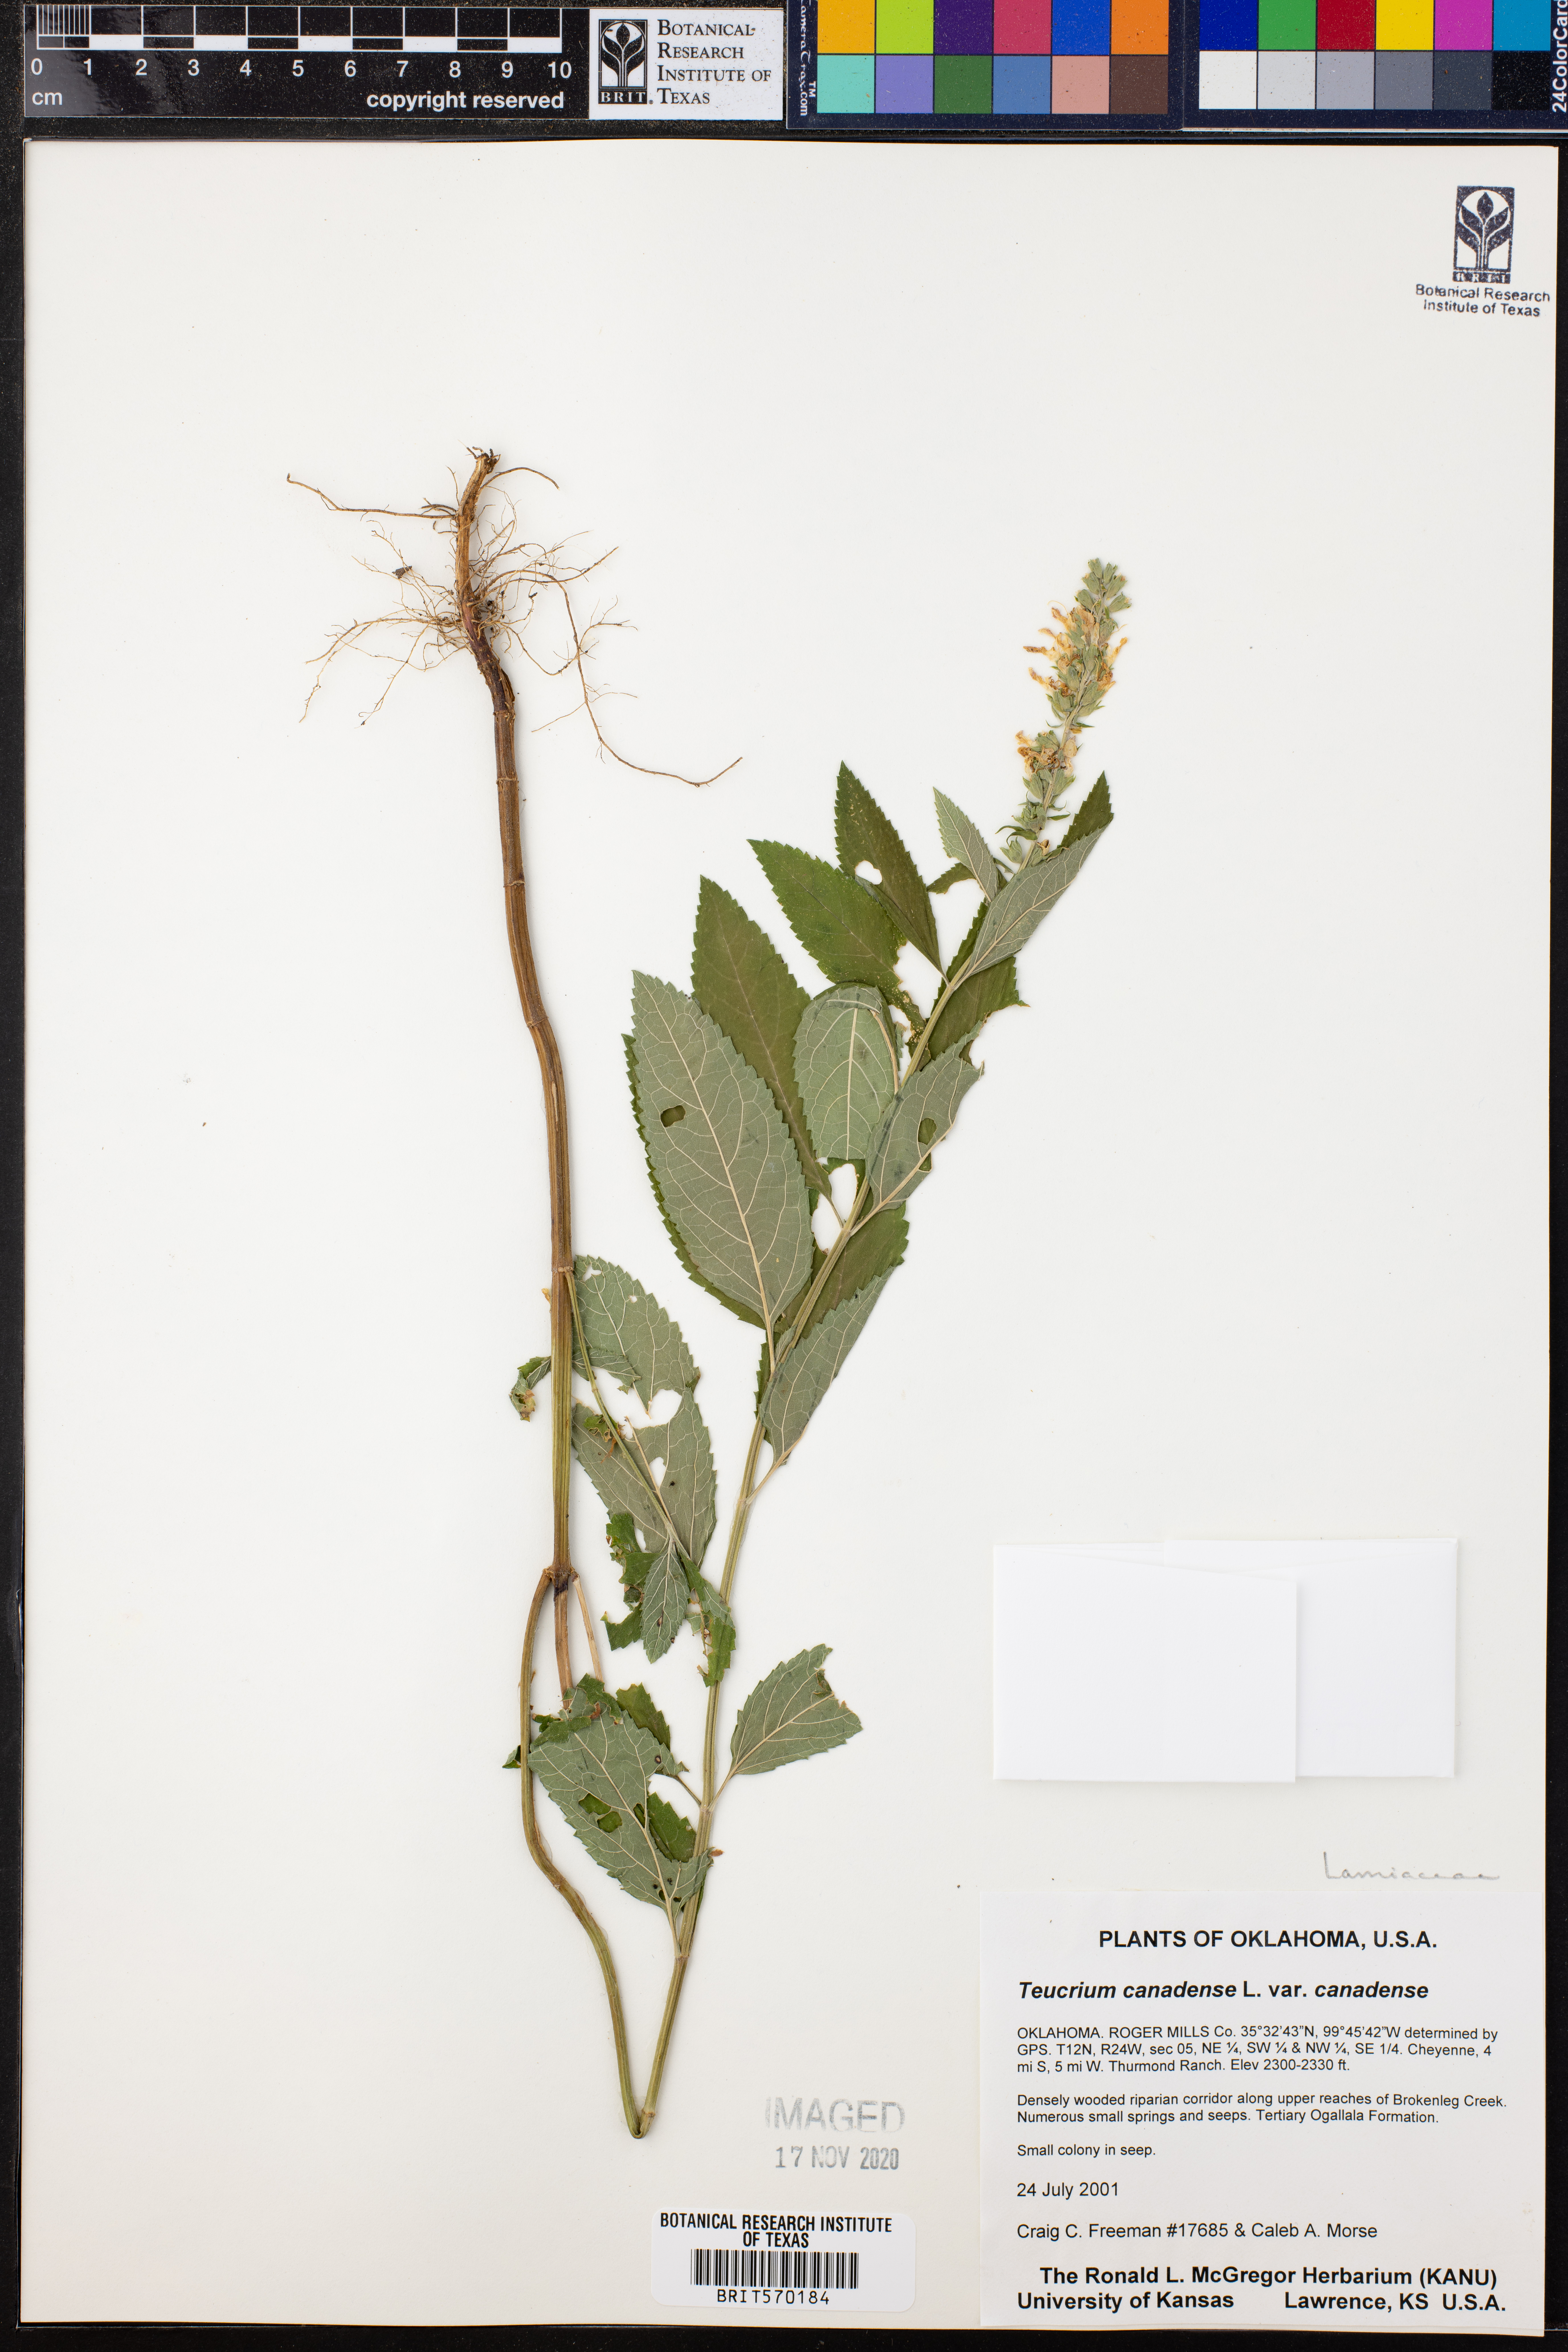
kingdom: Plantae
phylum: Tracheophyta
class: Magnoliopsida
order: Lamiales
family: Lamiaceae
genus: Teucrium
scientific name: Teucrium canadense
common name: American germander
